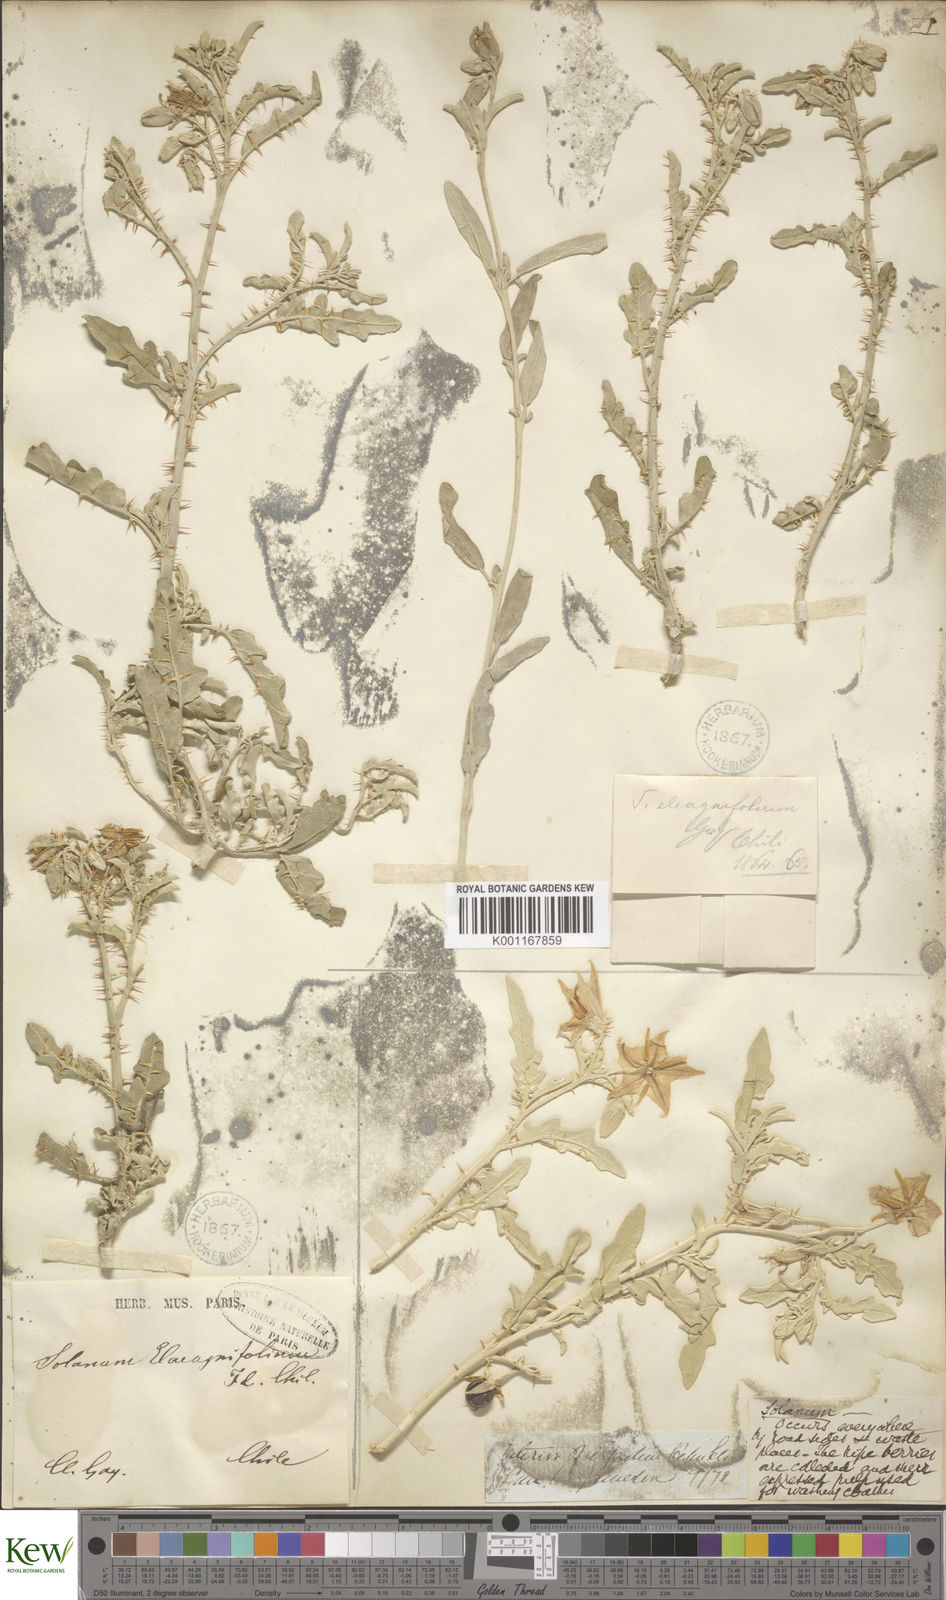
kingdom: Plantae
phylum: Tracheophyta
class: Magnoliopsida
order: Solanales
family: Solanaceae
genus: Solanum
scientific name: Solanum elaeagnifolium
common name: Silverleaf nightshade
